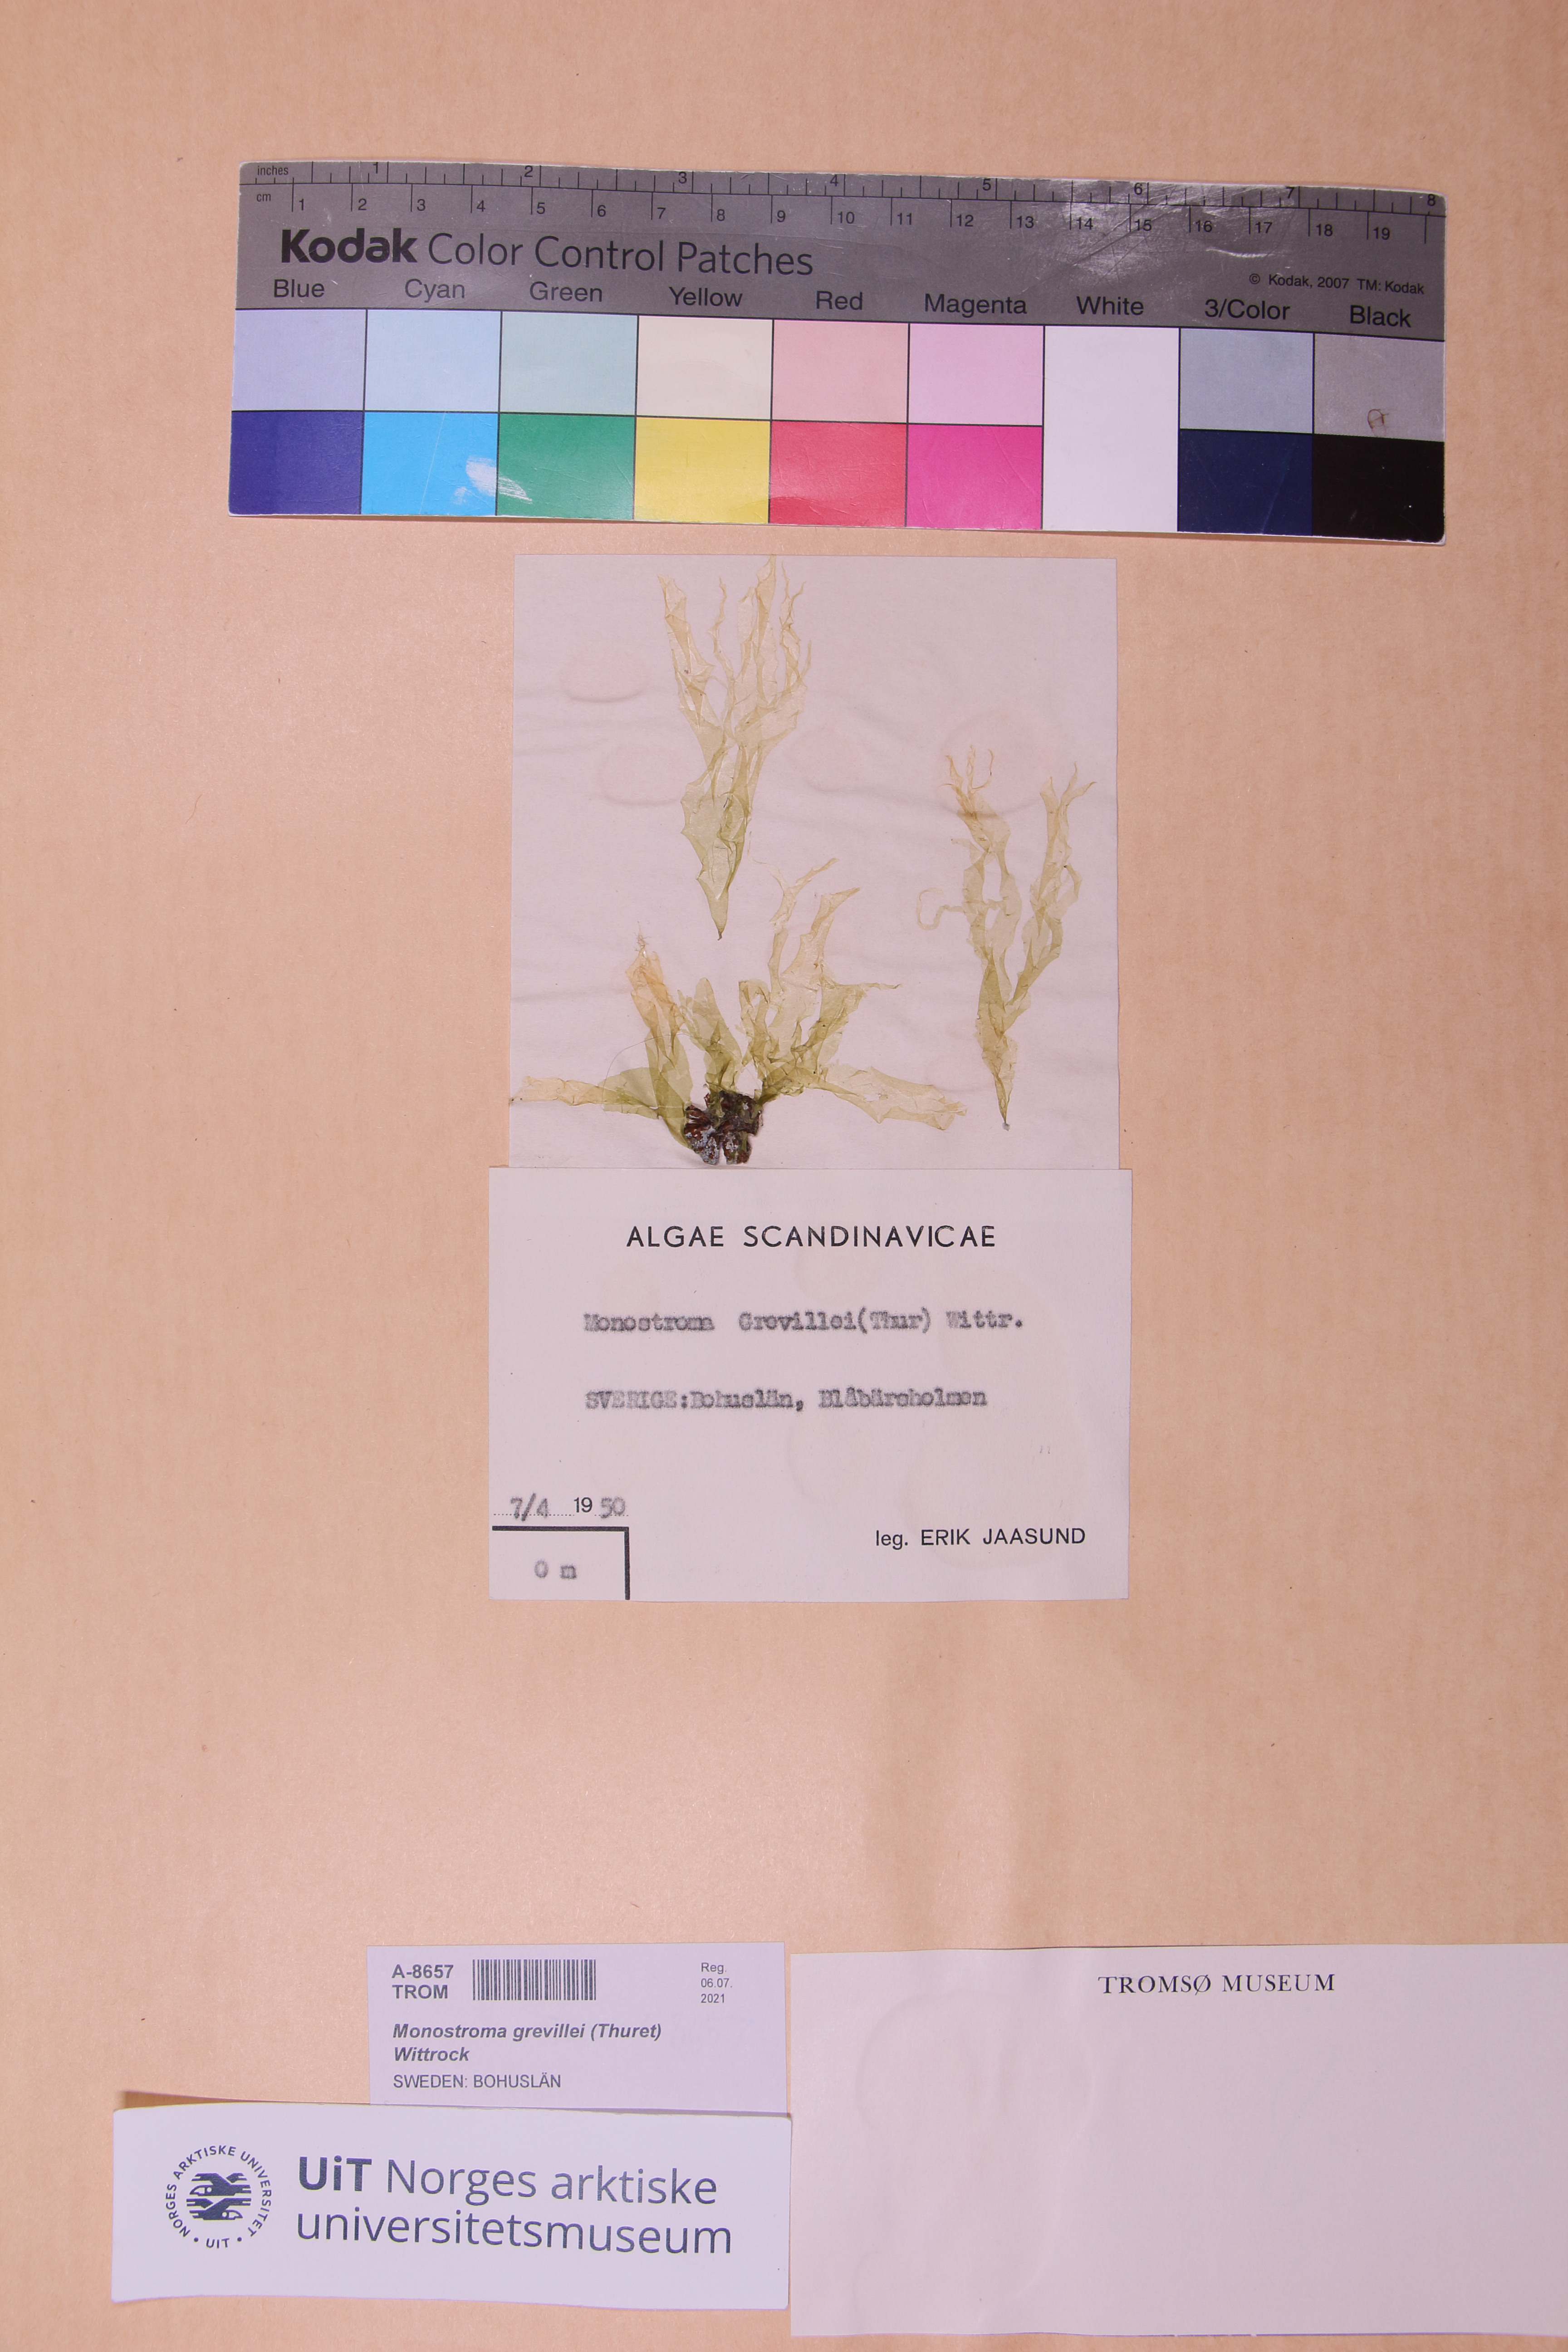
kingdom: Plantae
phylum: Chlorophyta
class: Ulvophyceae
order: Ulvales
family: Monostromataceae
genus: Monostroma
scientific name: Monostroma grevillei
